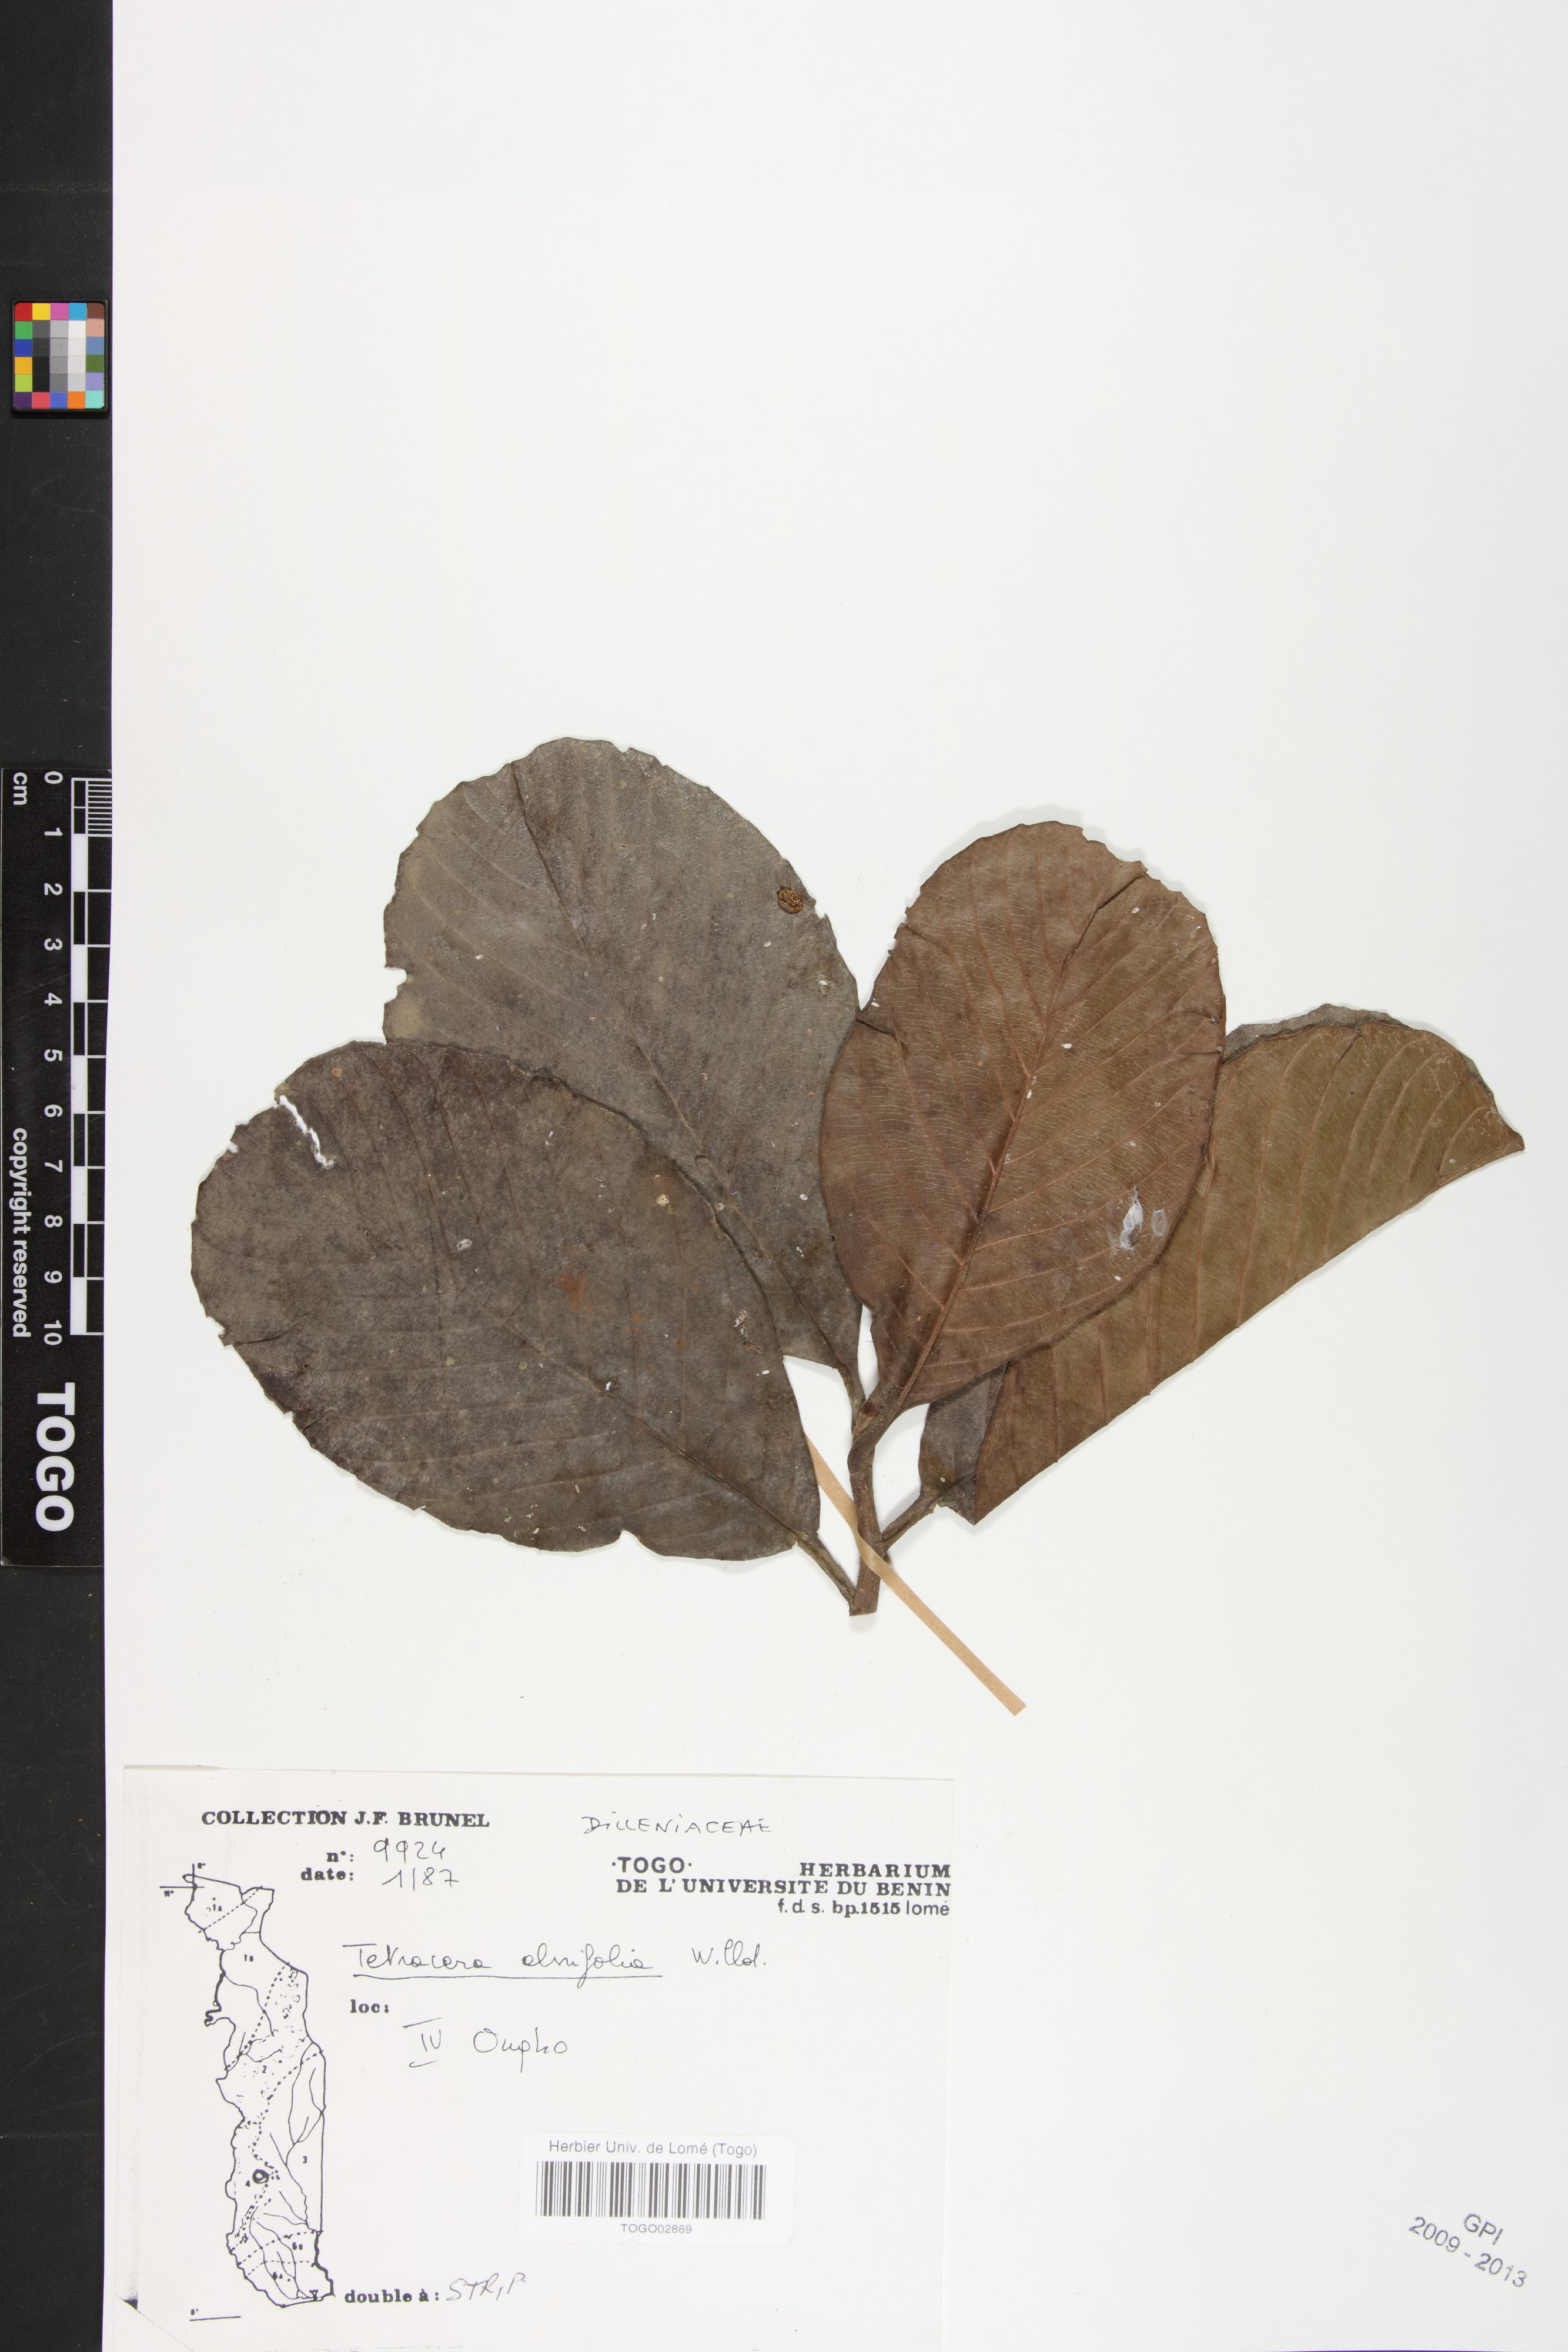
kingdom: Plantae
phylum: Tracheophyta
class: Magnoliopsida
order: Dilleniales
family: Dilleniaceae
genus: Tetracera
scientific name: Tetracera alnifolia
